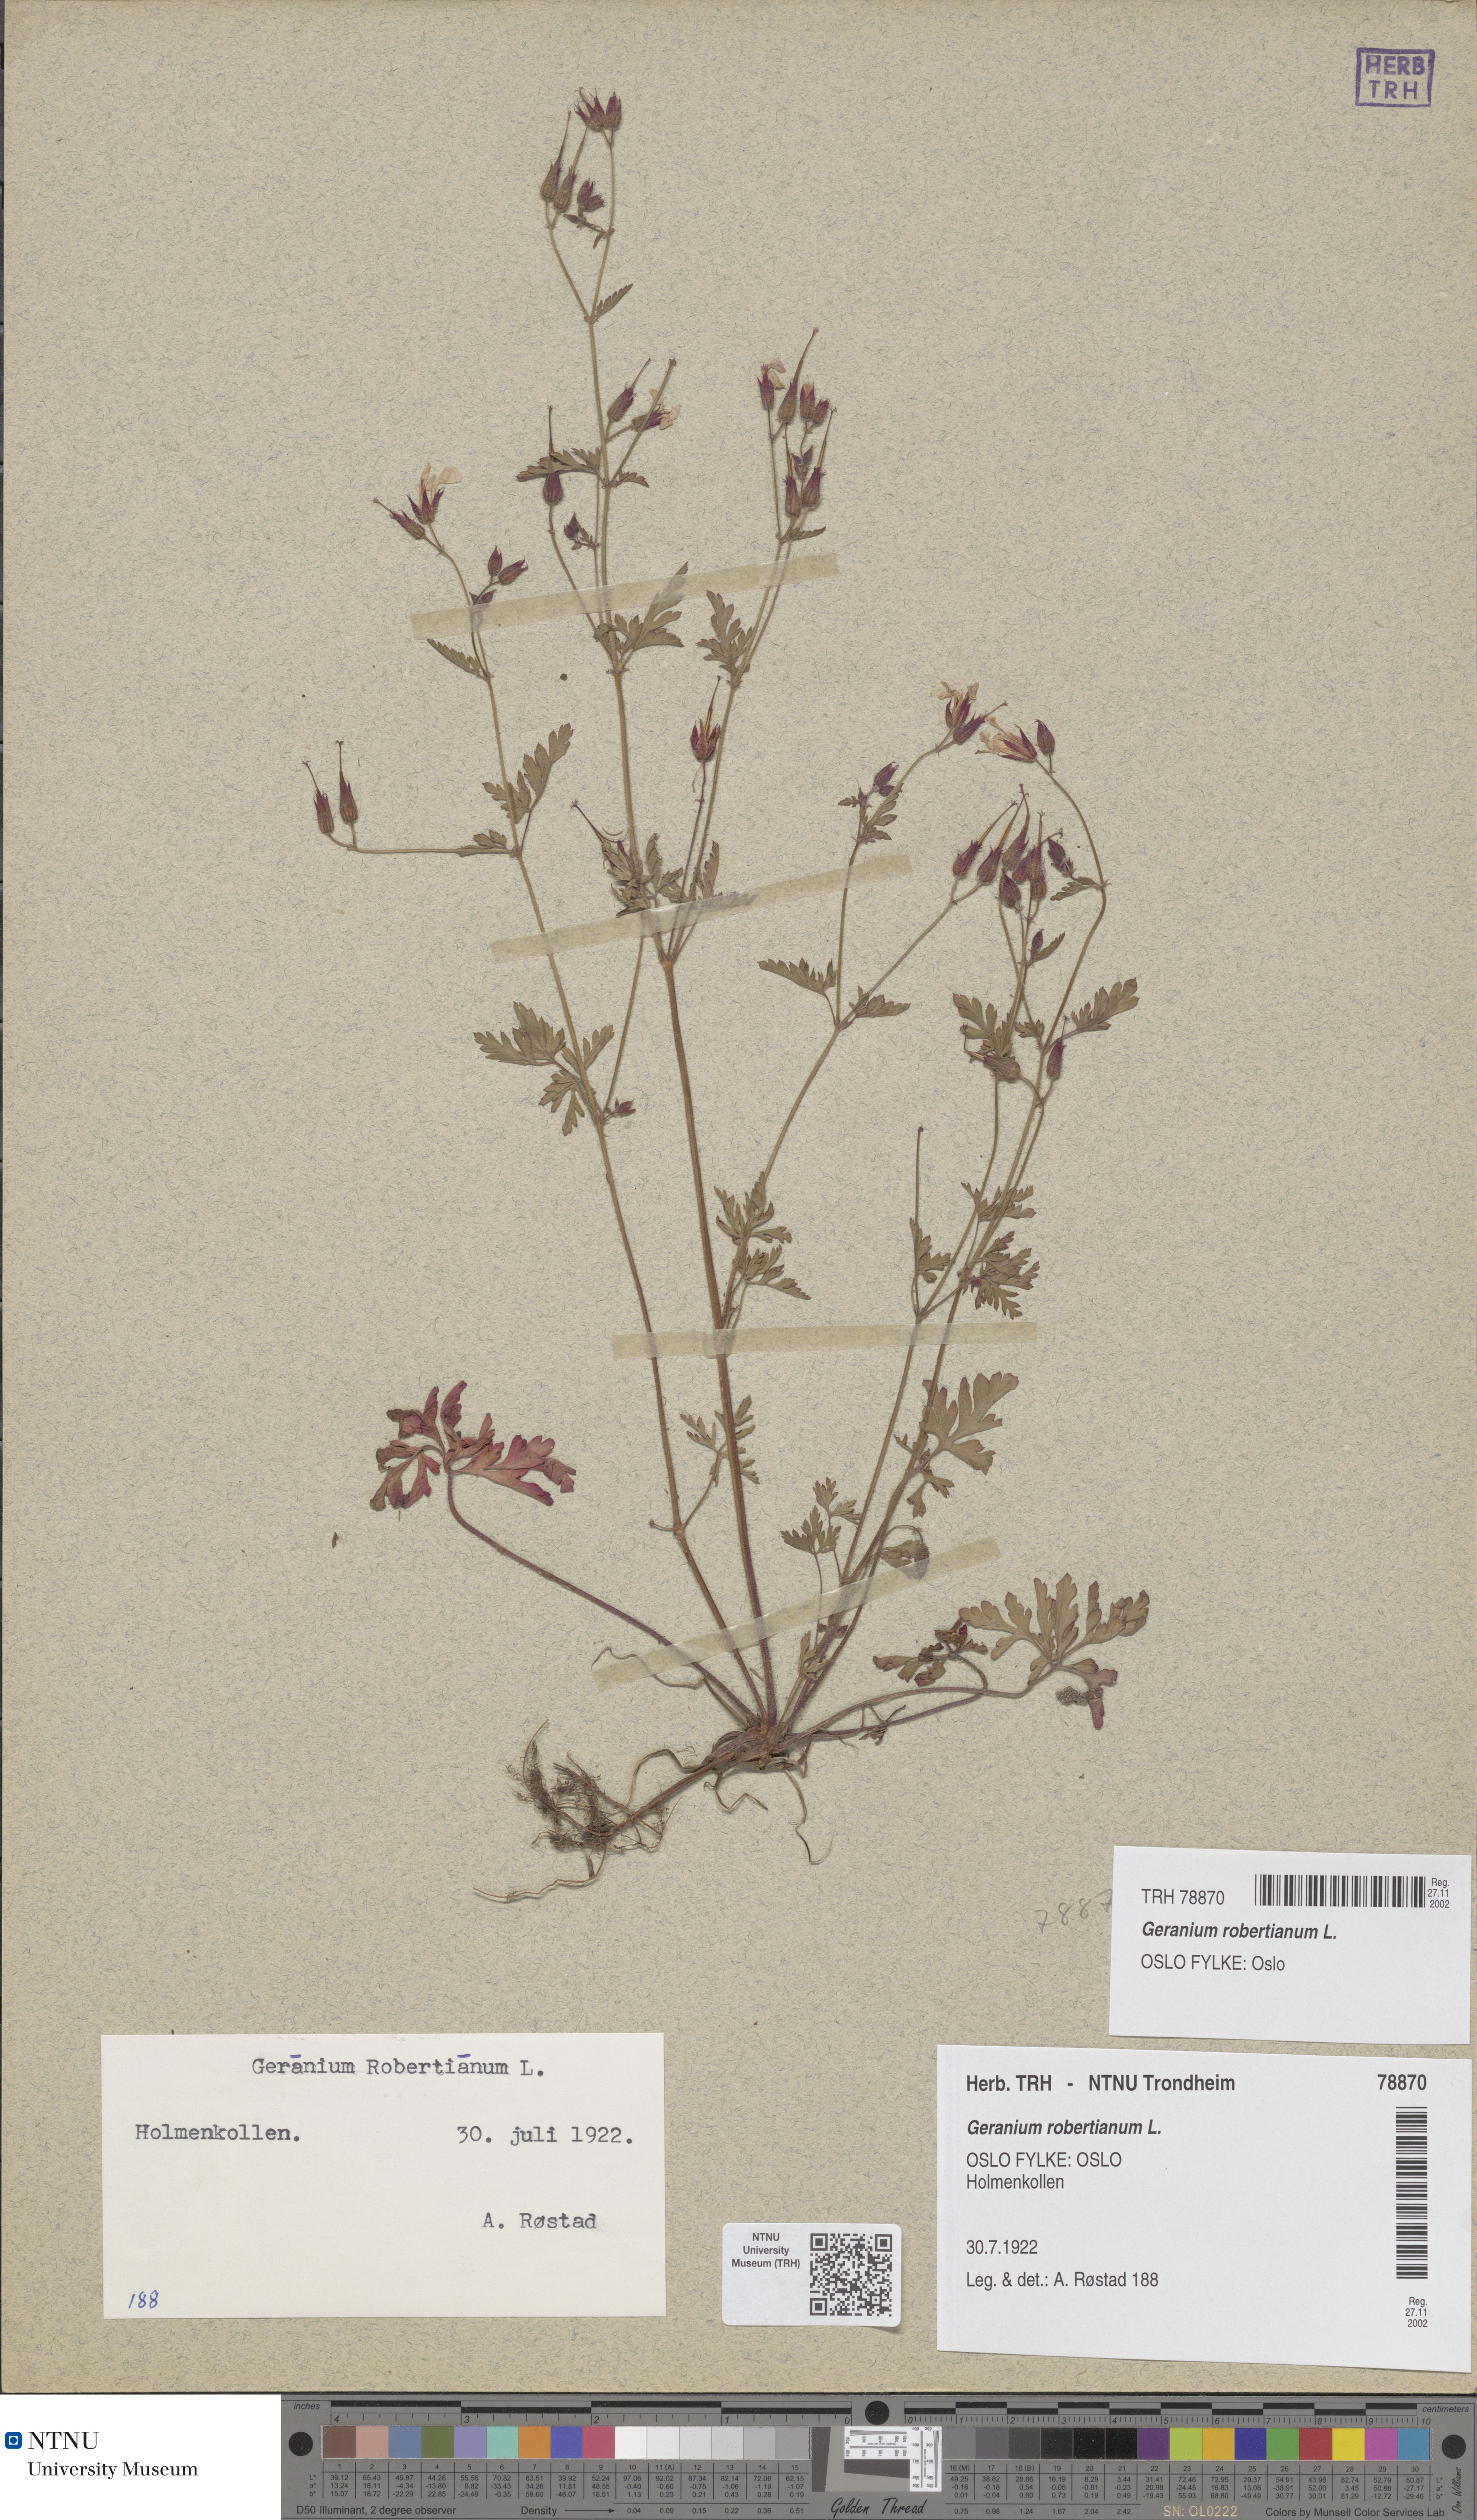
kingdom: Plantae
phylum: Tracheophyta
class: Magnoliopsida
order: Geraniales
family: Geraniaceae
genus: Geranium
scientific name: Geranium robertianum
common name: Herb-robert
